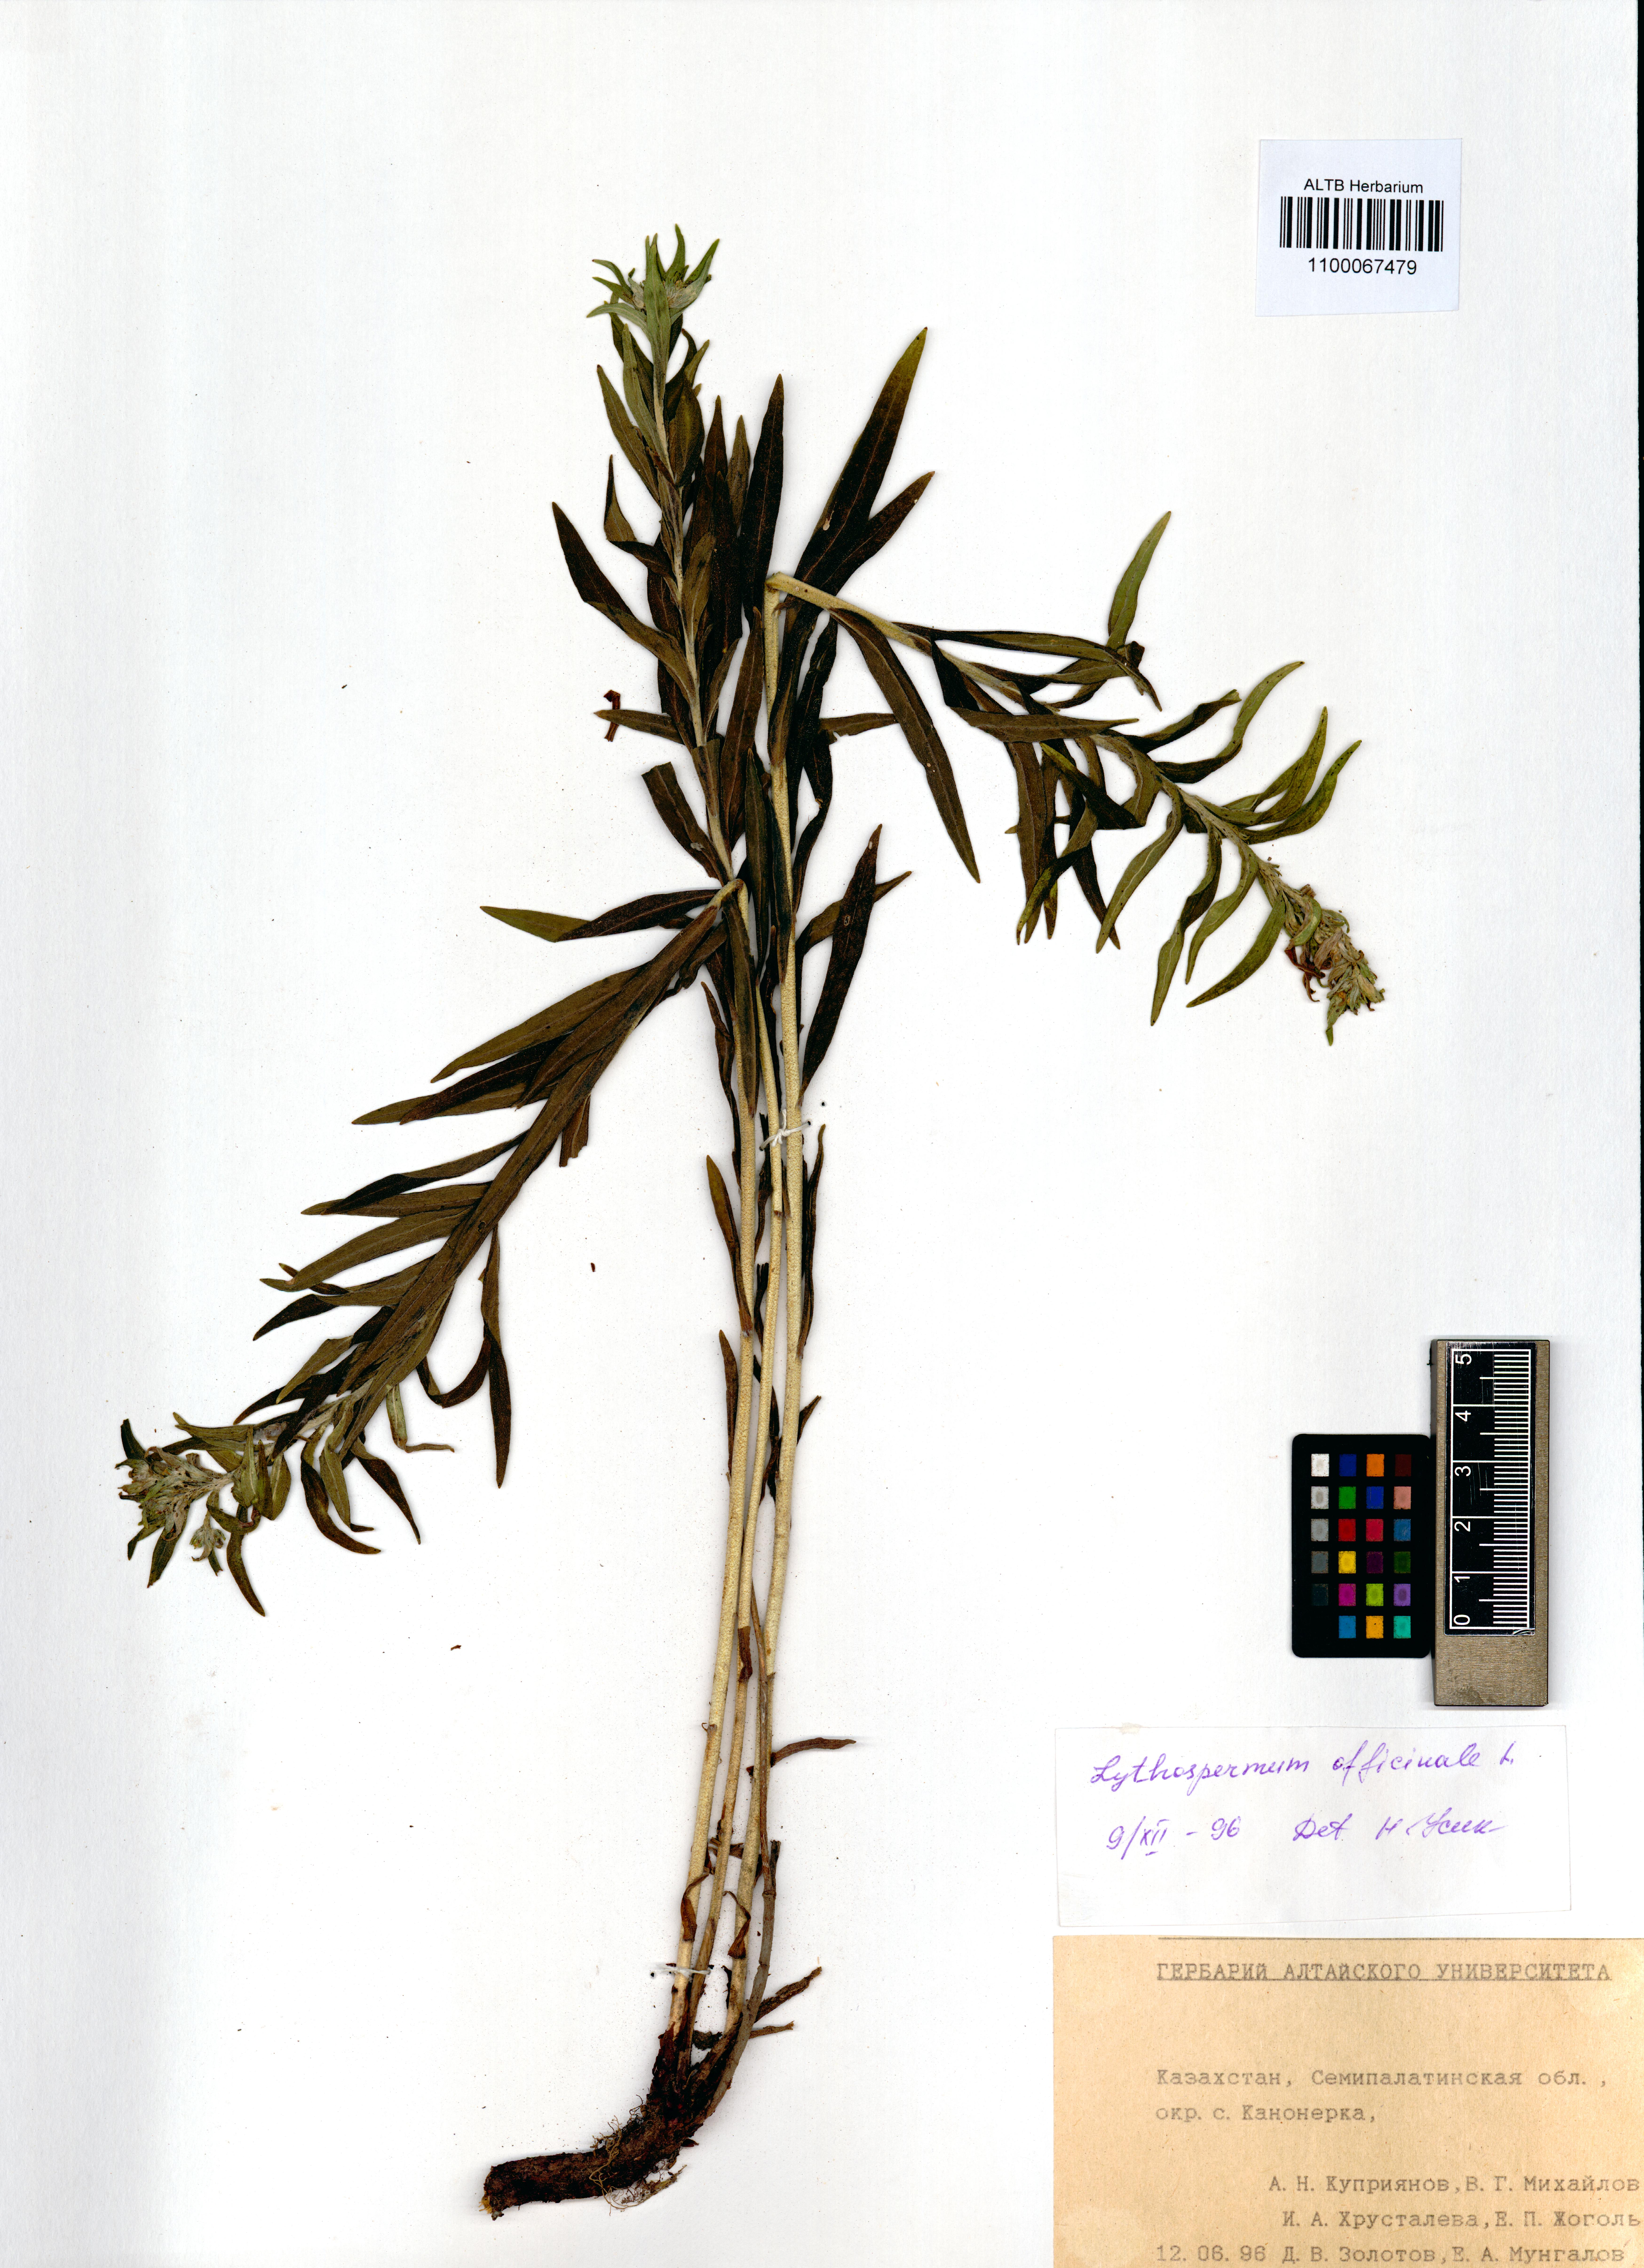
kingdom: Plantae
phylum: Tracheophyta
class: Magnoliopsida
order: Boraginales
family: Boraginaceae
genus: Lithospermum
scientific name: Lithospermum officinale
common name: Common gromwell
